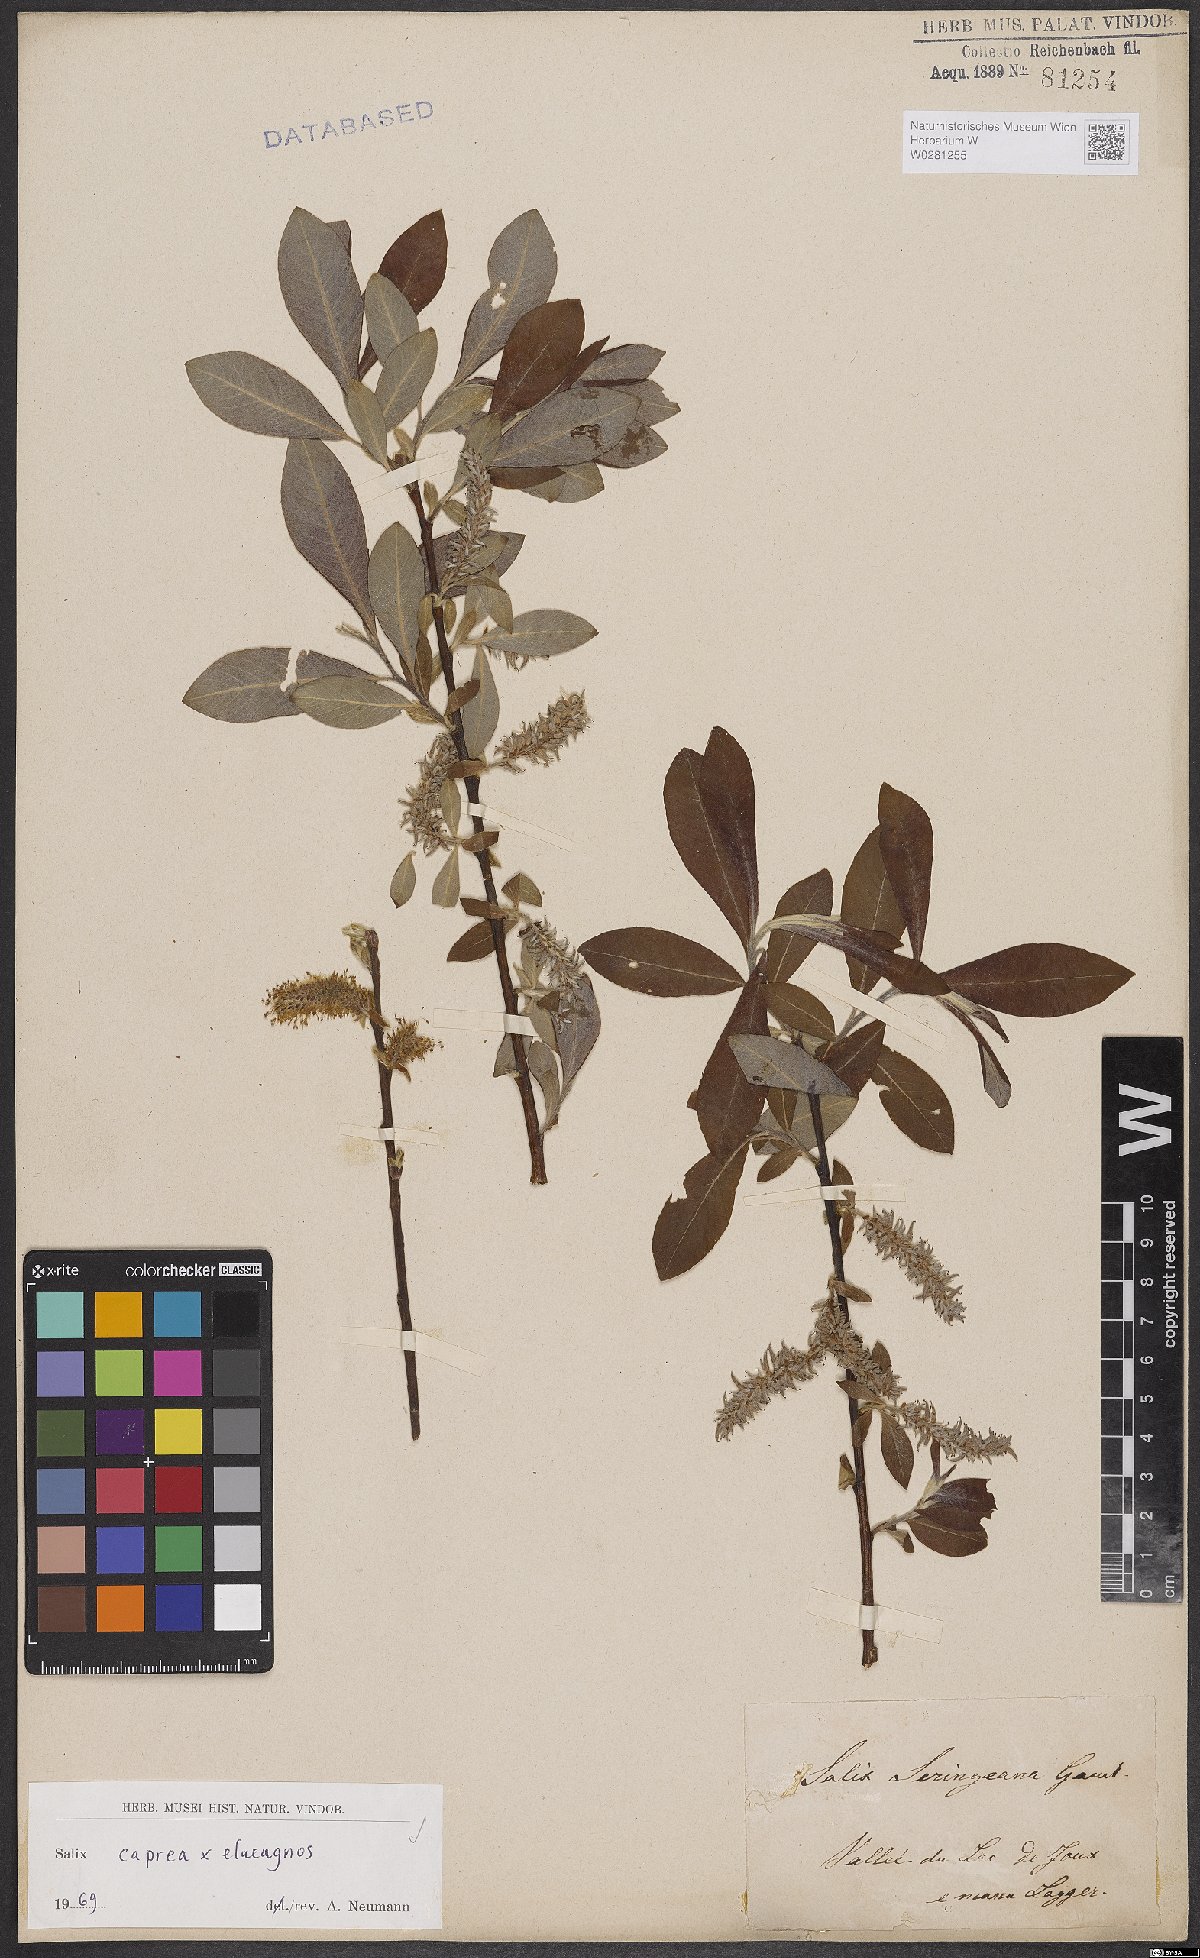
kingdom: Plantae
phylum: Tracheophyta
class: Magnoliopsida
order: Malpighiales
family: Salicaceae
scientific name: Salicaceae
